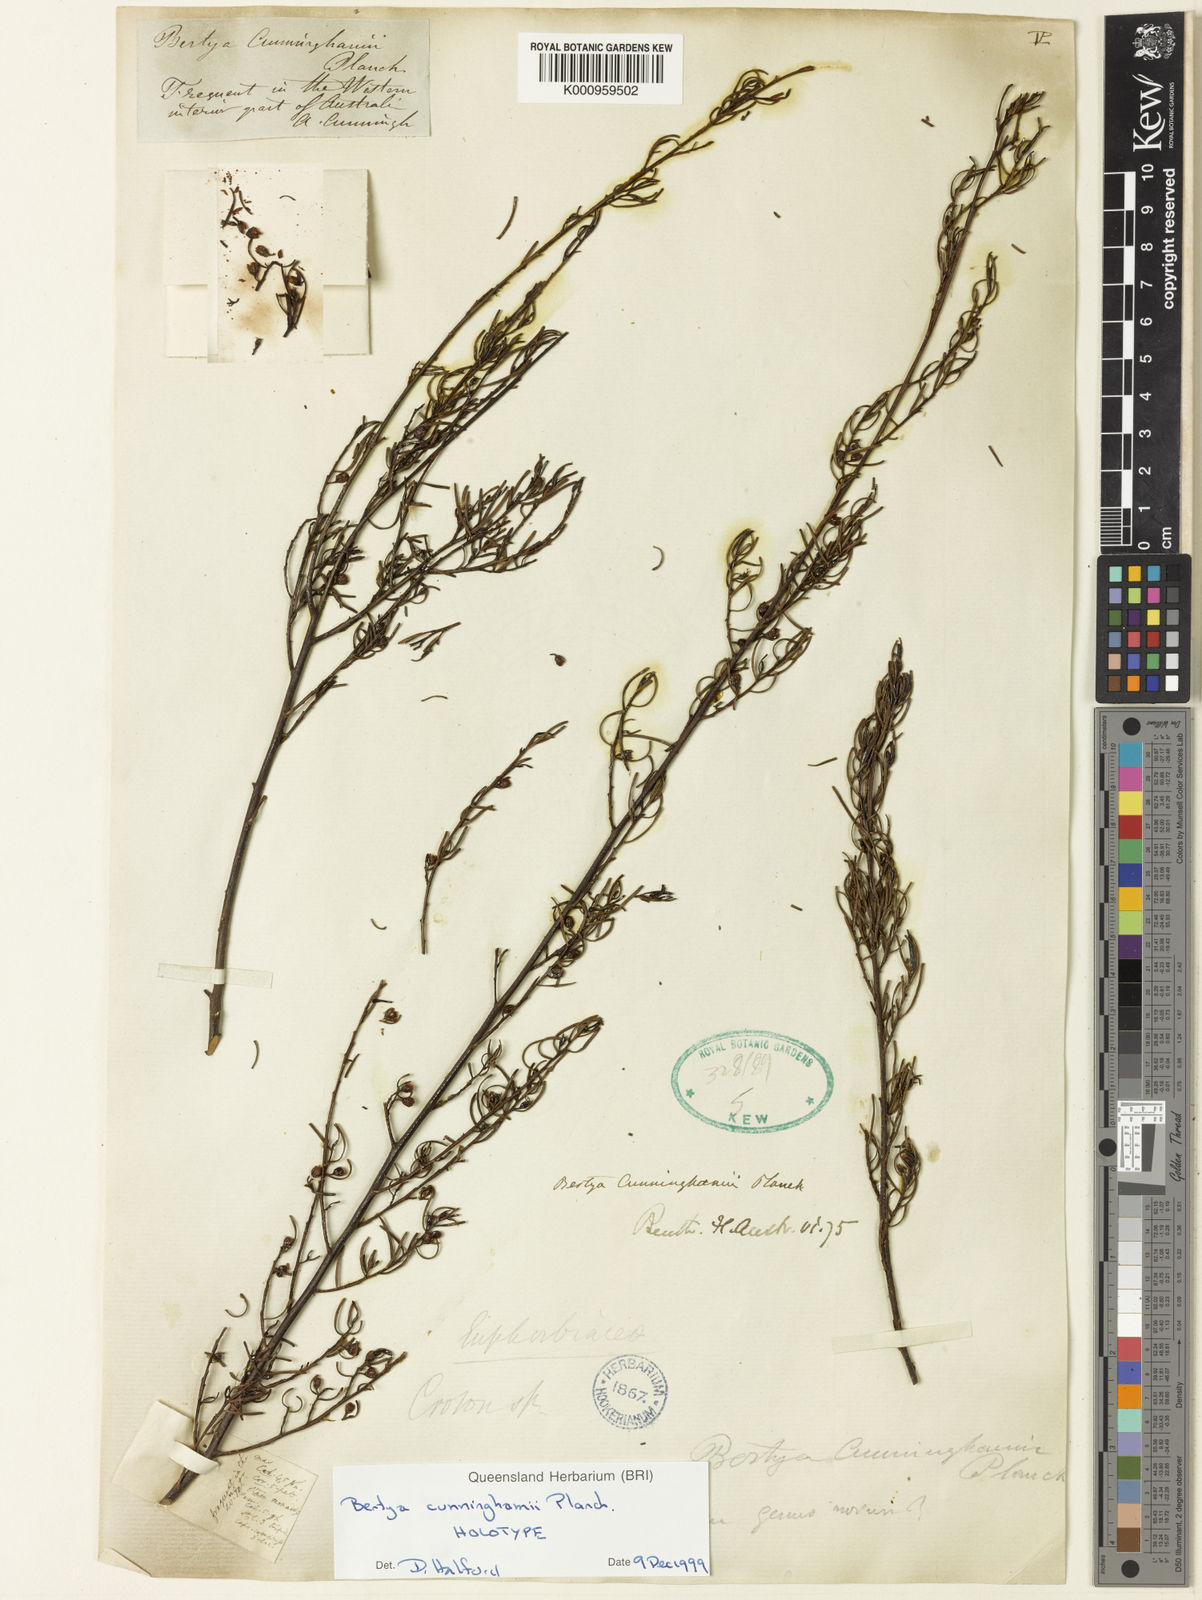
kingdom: Plantae
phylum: Tracheophyta
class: Magnoliopsida
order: Malpighiales
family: Euphorbiaceae
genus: Bertya
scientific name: Bertya cunninghamii
